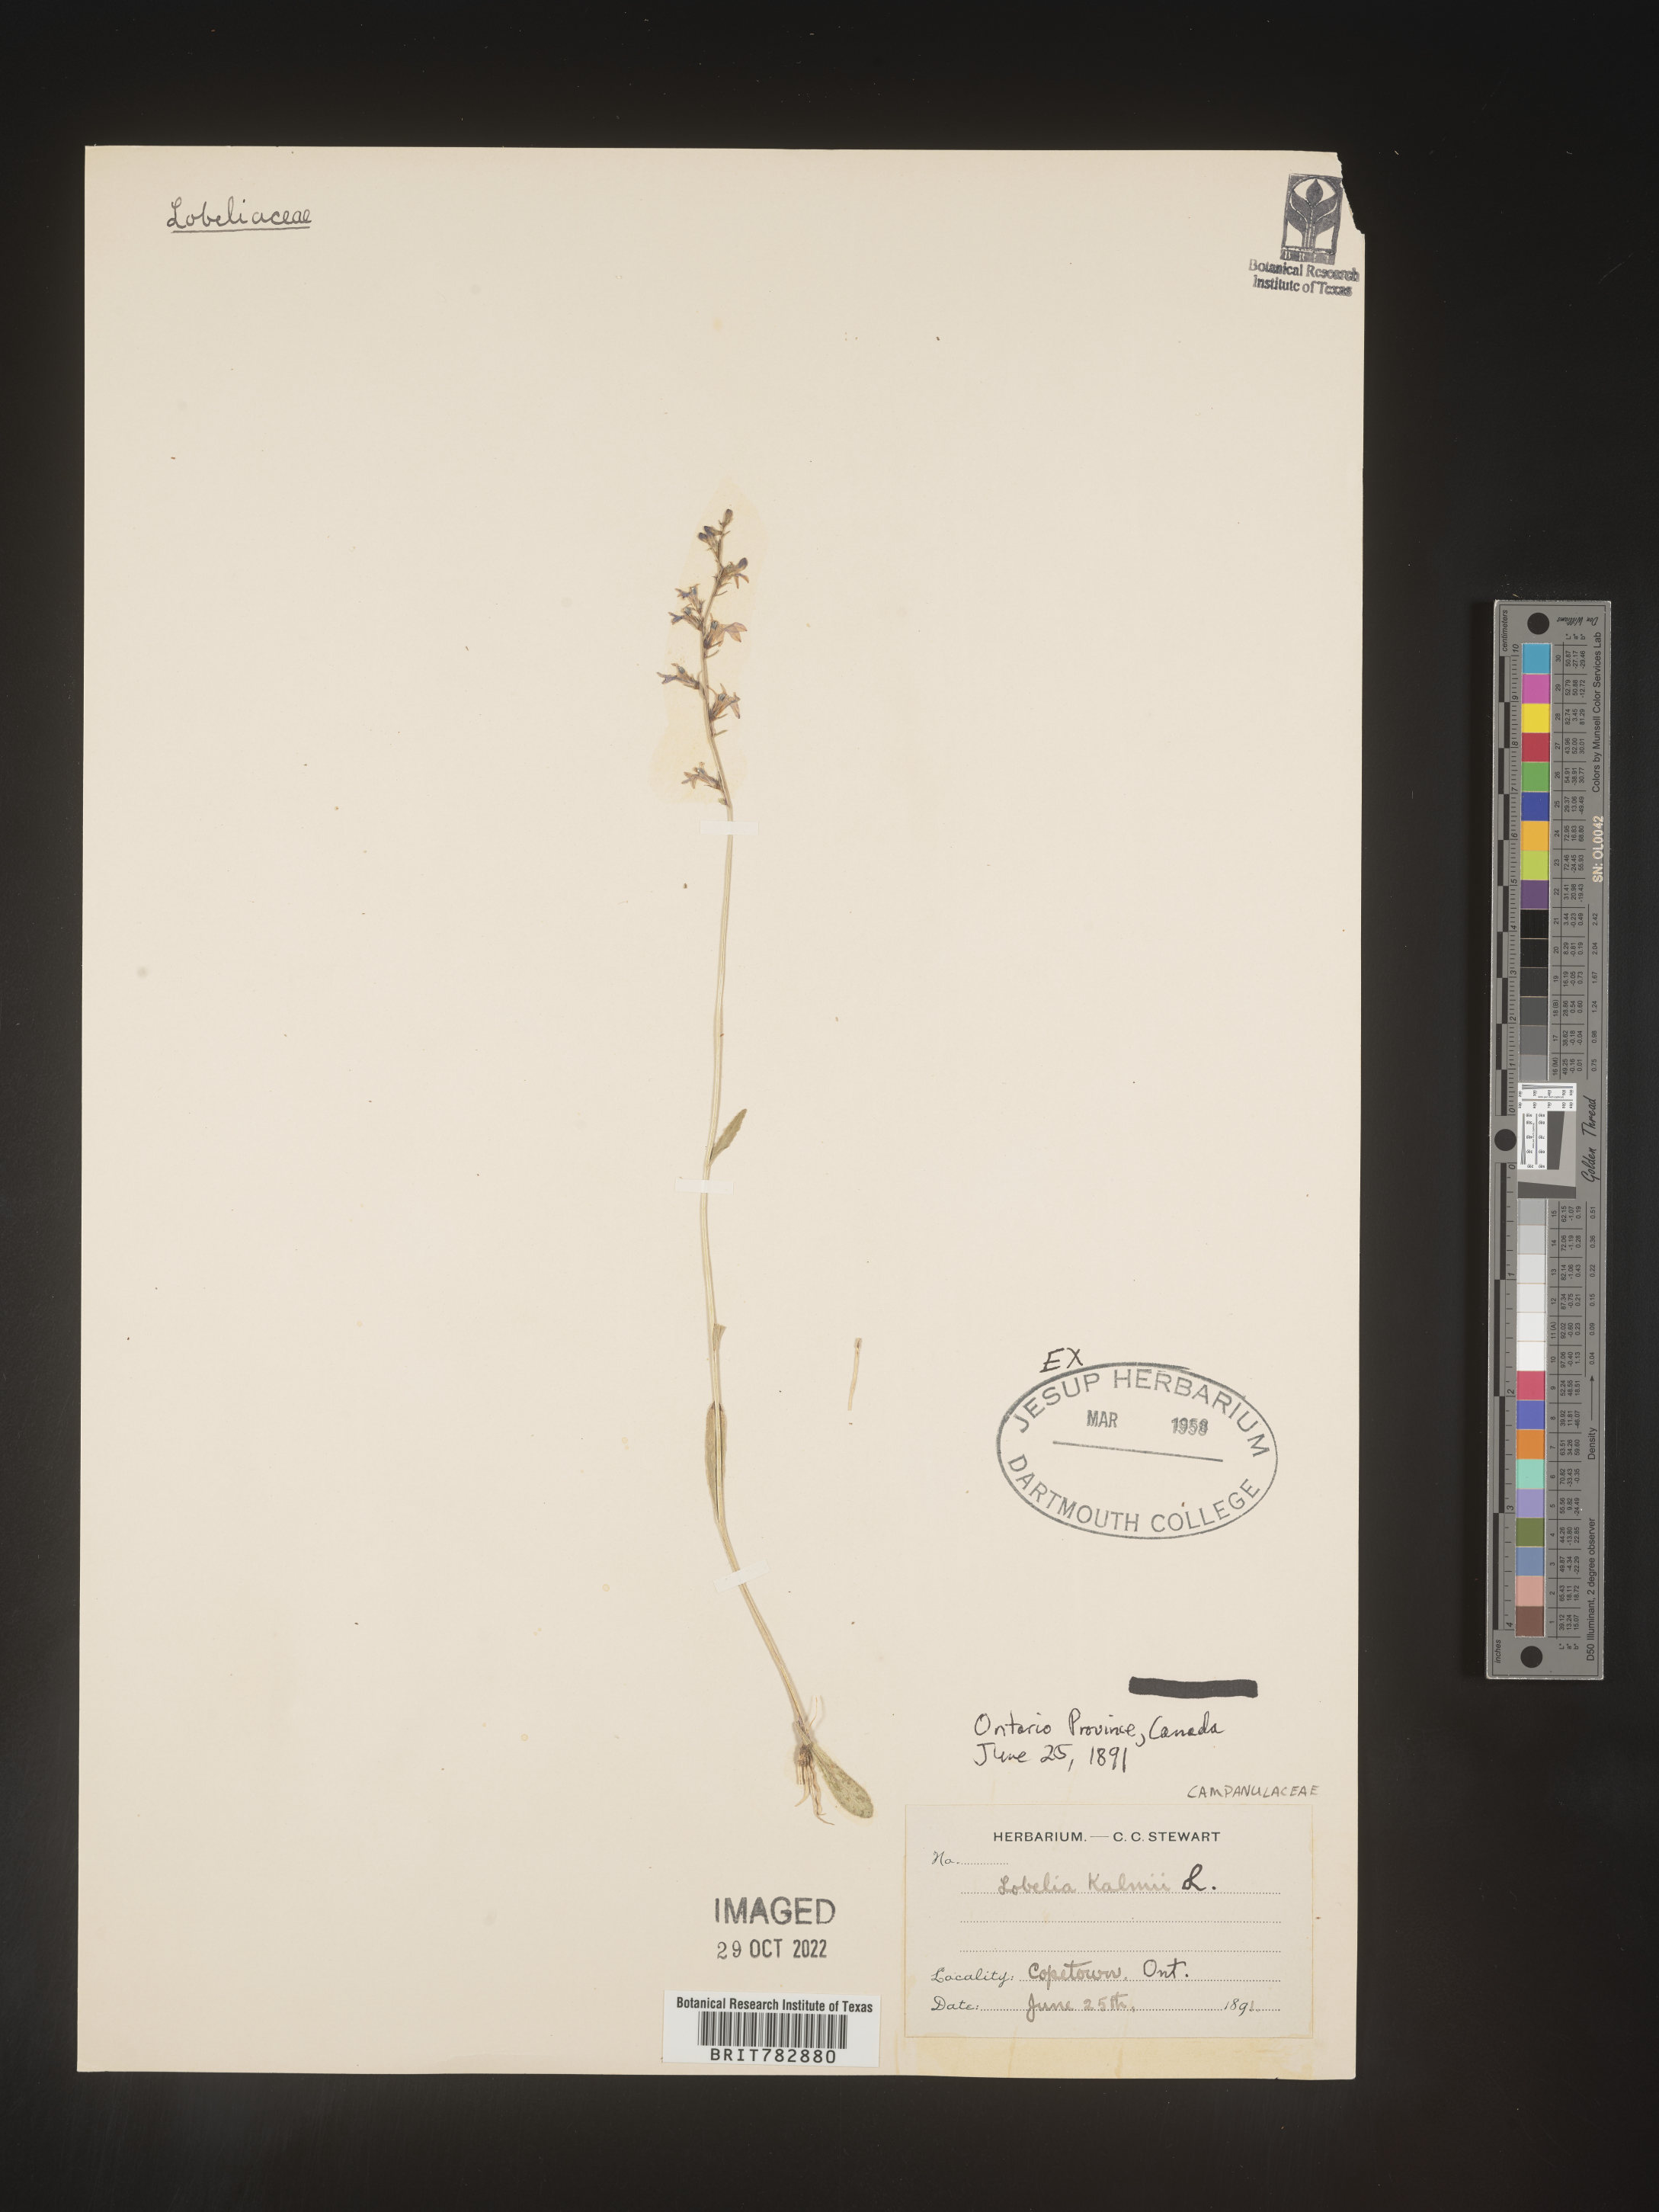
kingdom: Plantae
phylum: Tracheophyta
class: Magnoliopsida
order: Asterales
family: Campanulaceae
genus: Lobelia
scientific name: Lobelia
